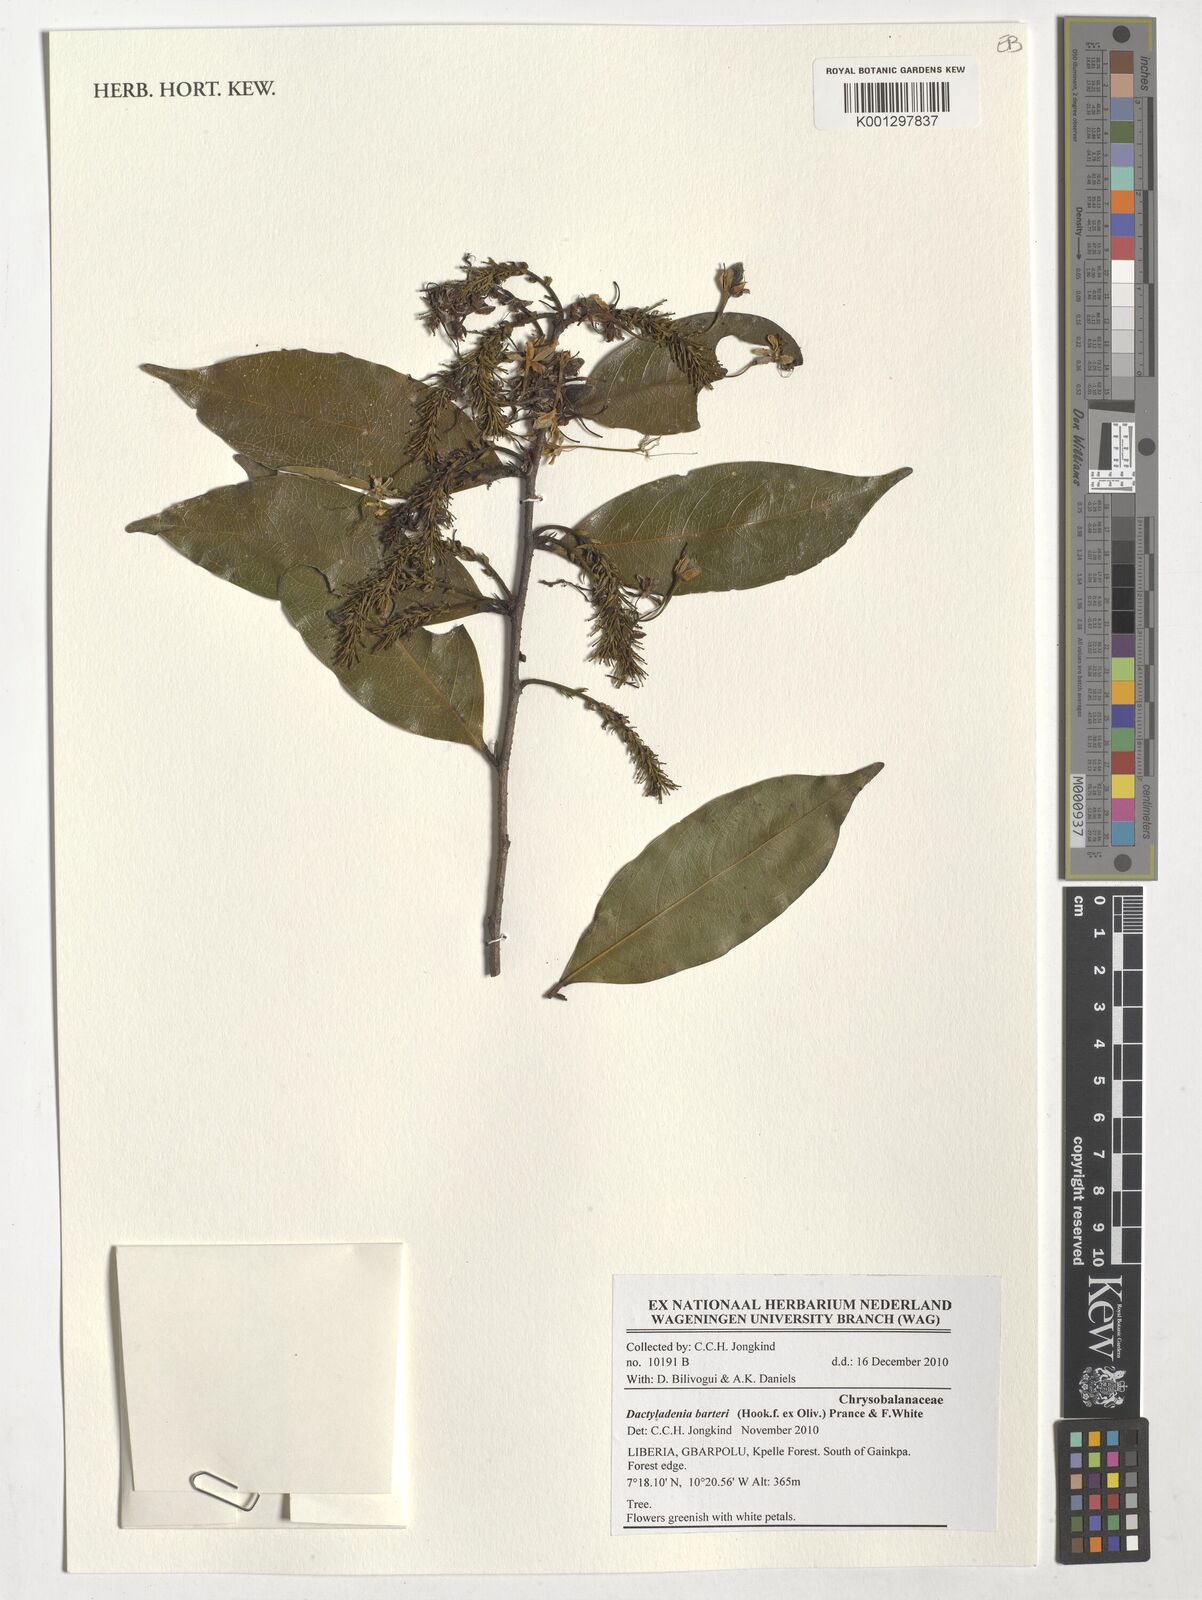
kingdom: Plantae
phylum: Tracheophyta
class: Magnoliopsida
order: Malpighiales
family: Chrysobalanaceae
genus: Dactyladenia
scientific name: Dactyladenia barteri
